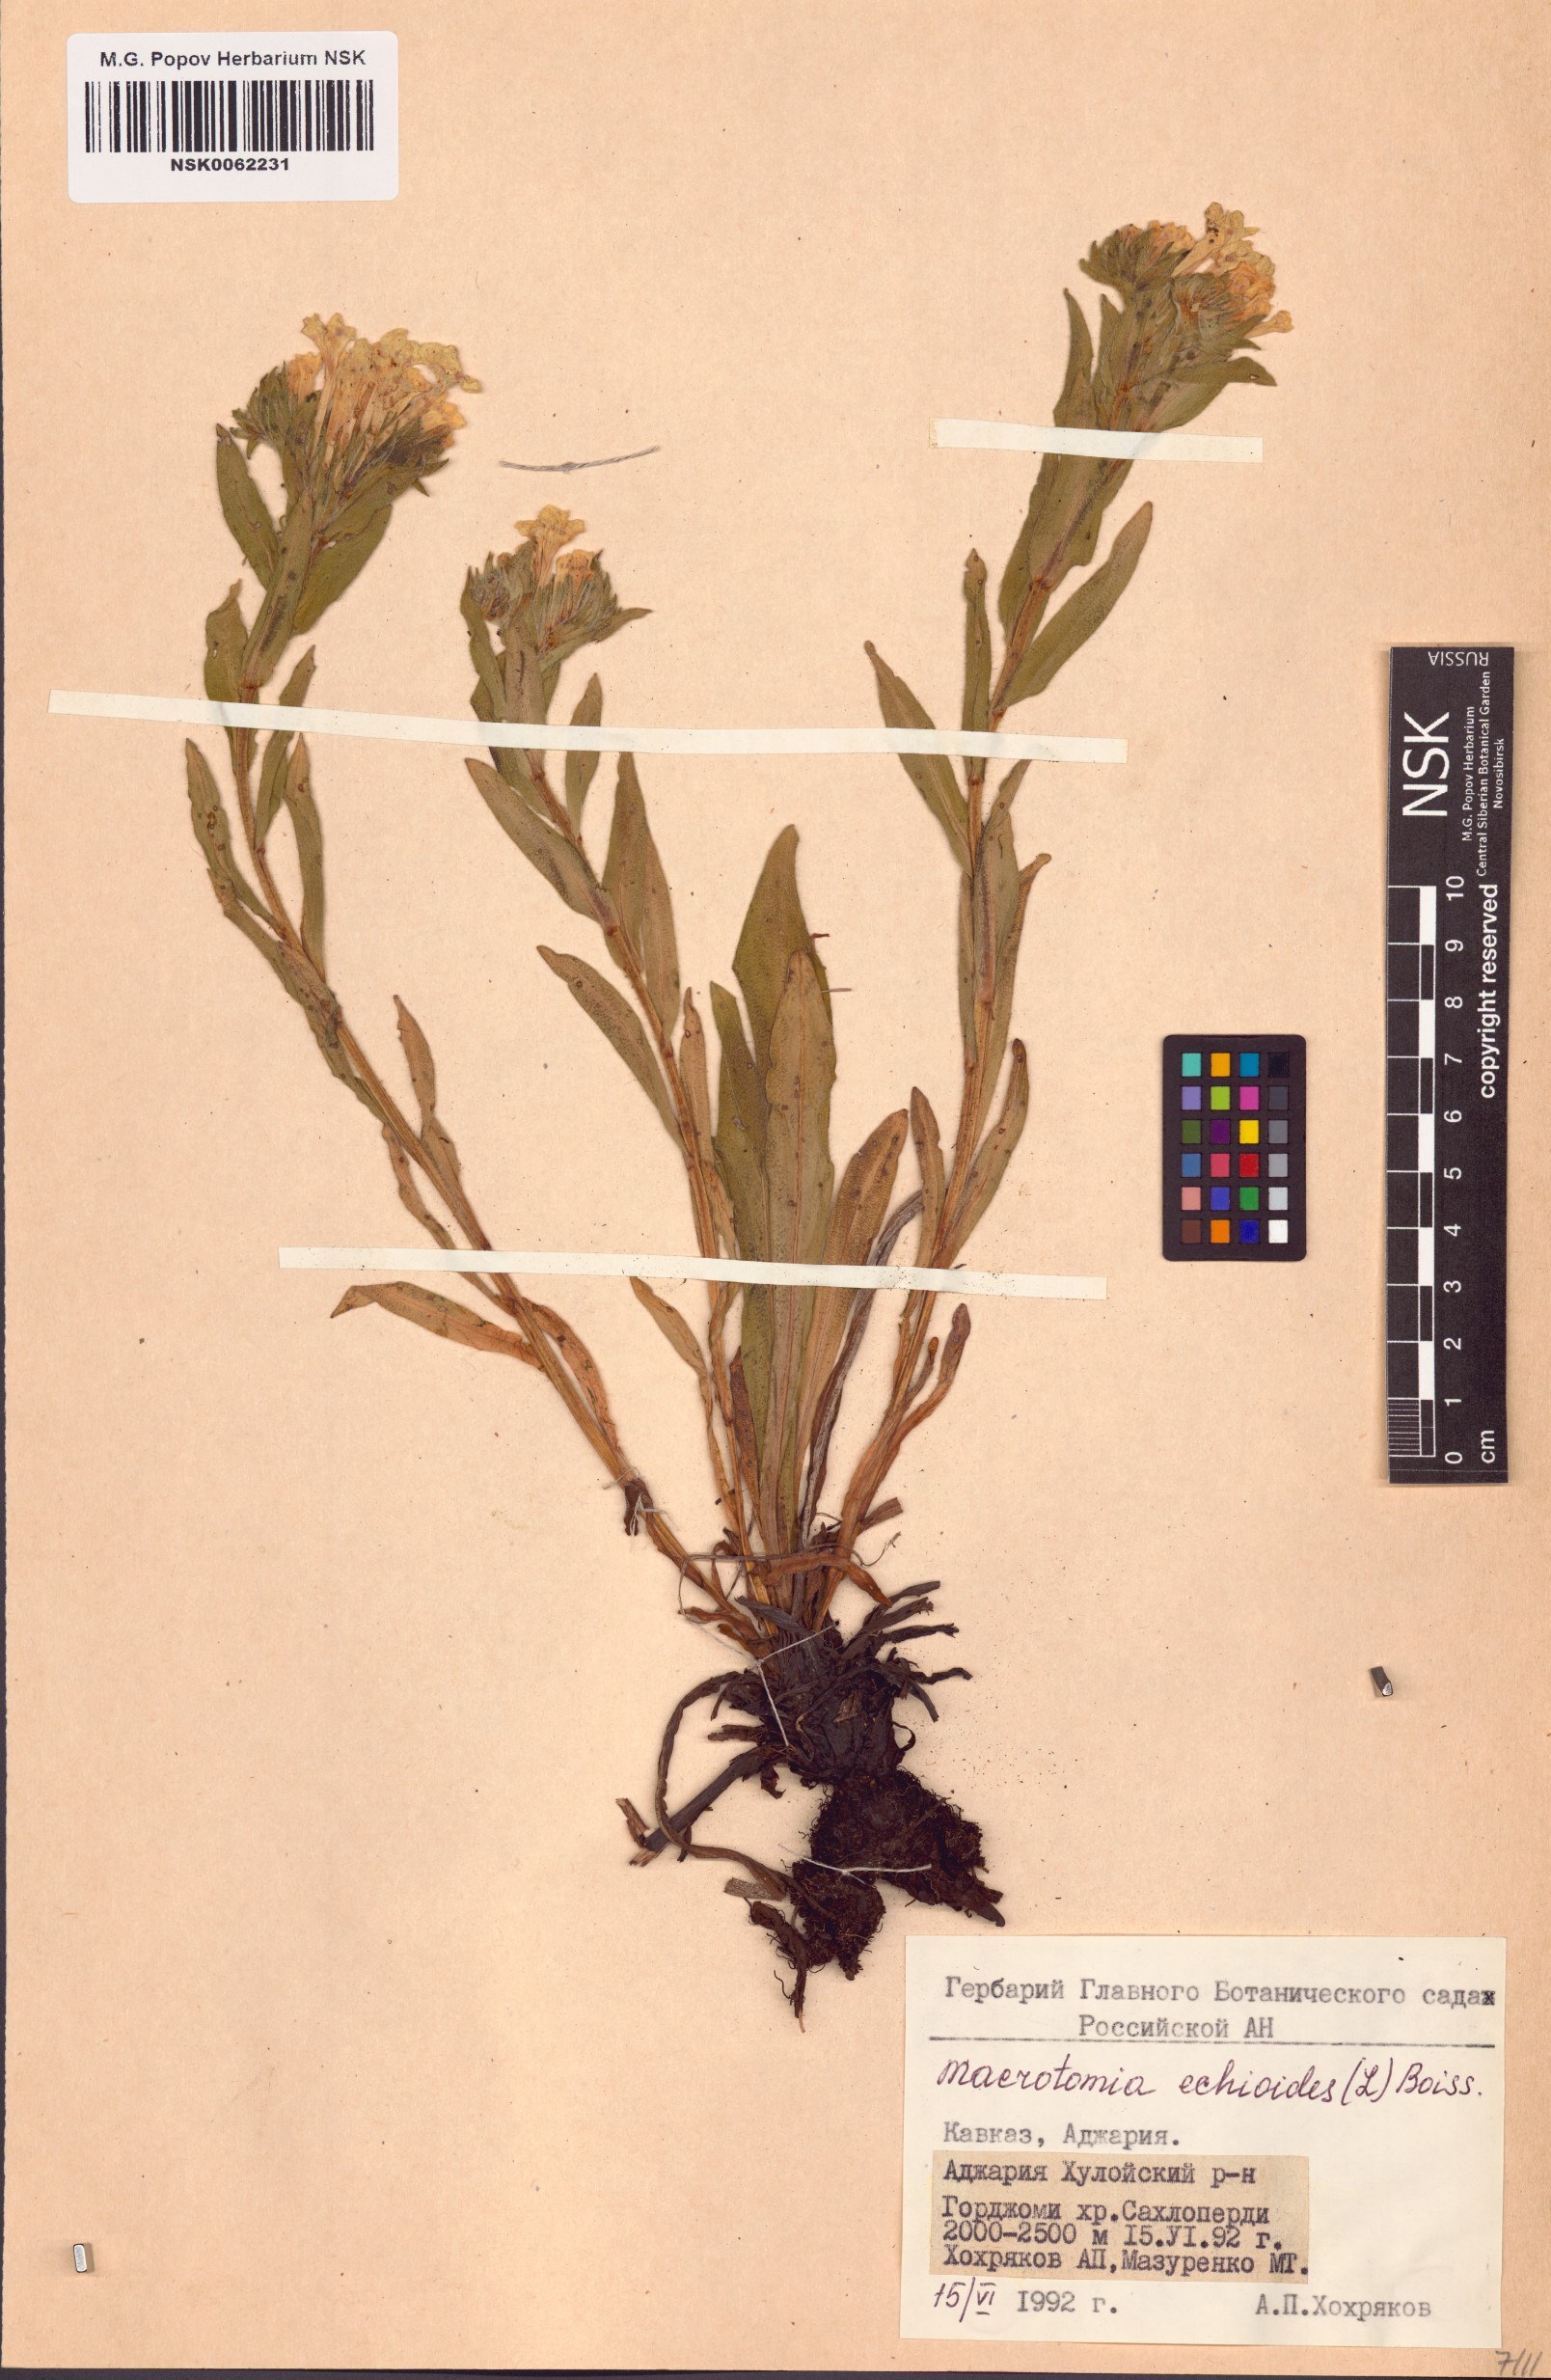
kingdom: Plantae
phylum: Tracheophyta
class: Magnoliopsida
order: Boraginales
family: Boraginaceae
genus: Nonea
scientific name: Nonea echioides
